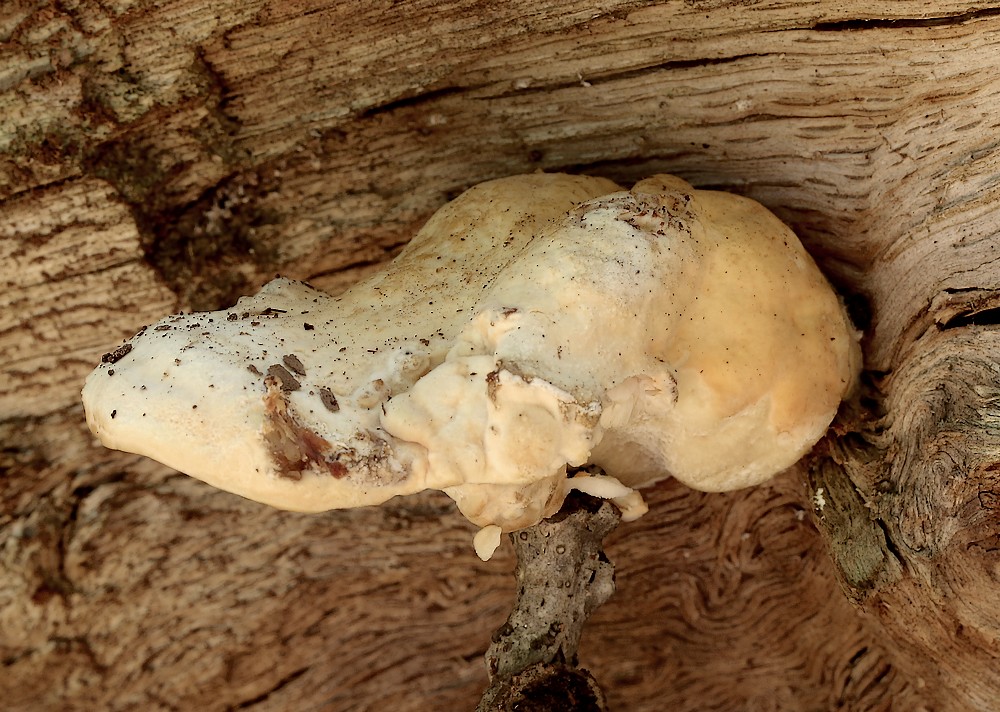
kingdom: Fungi
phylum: Basidiomycota
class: Agaricomycetes
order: Polyporales
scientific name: Polyporales
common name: poresvampordenen
